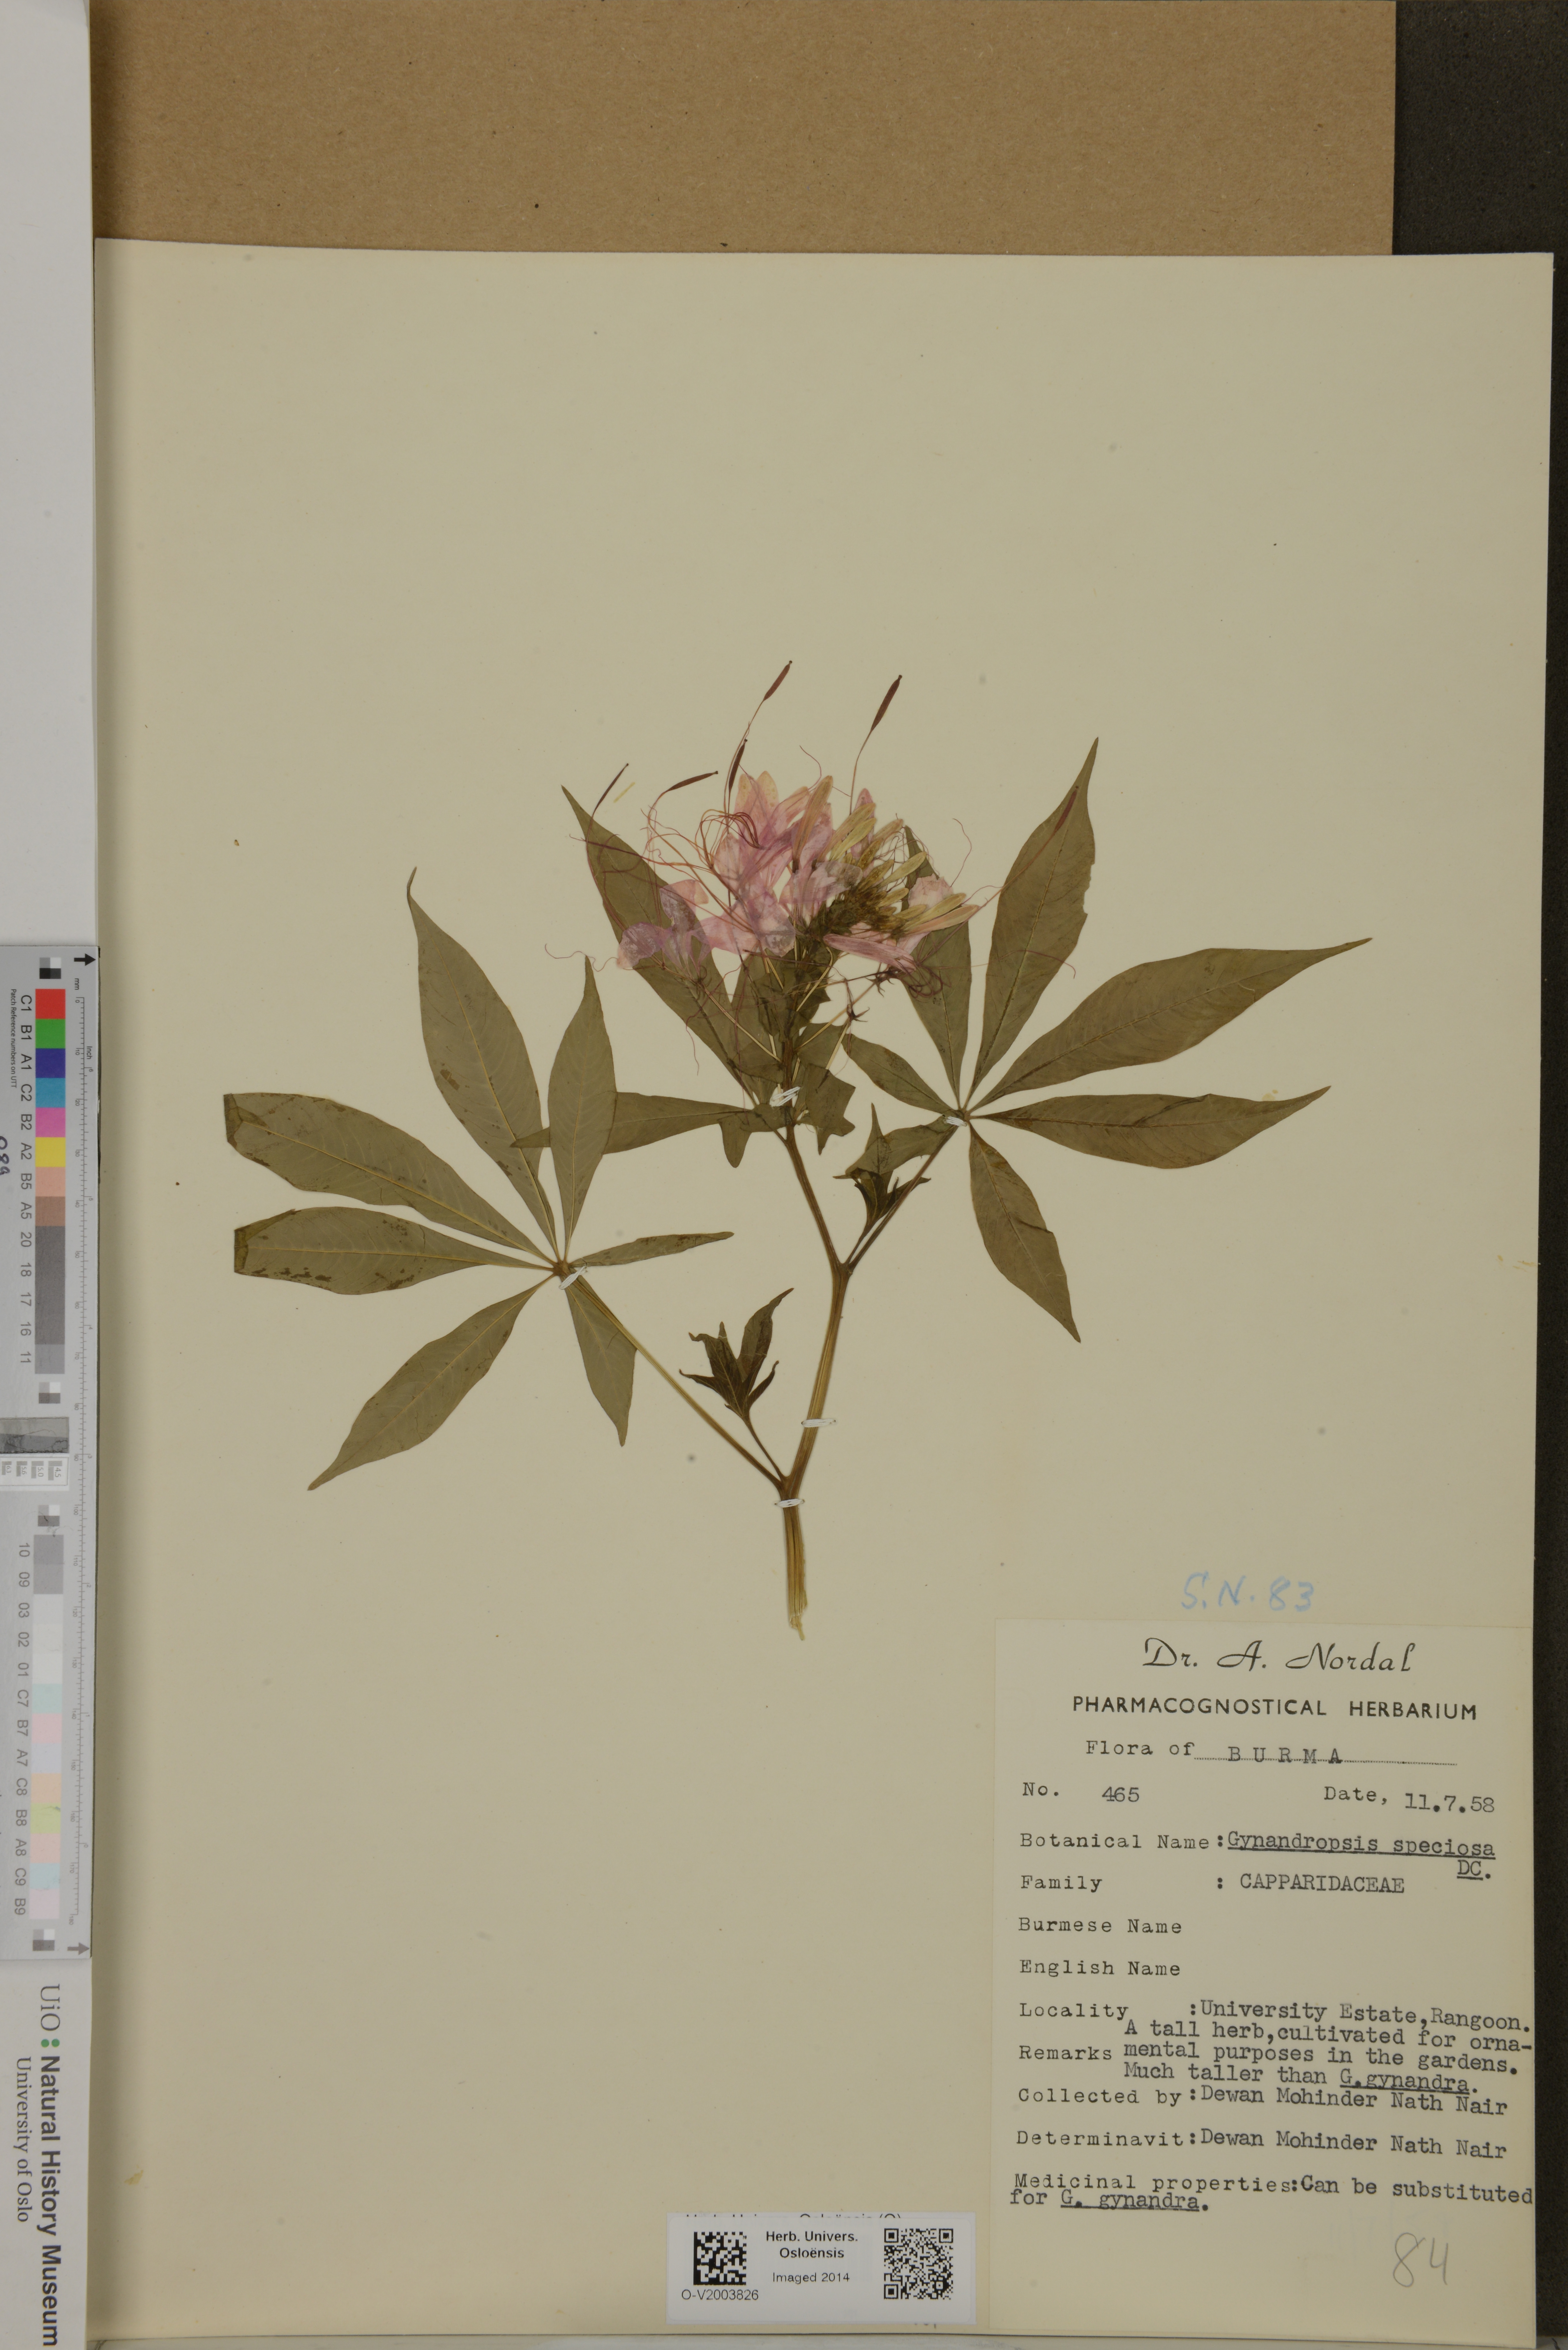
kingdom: Plantae
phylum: Tracheophyta
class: Magnoliopsida
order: Brassicales
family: Cleomaceae
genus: Cleoserrata
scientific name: Cleoserrata speciosa
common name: Volantines preciosos
